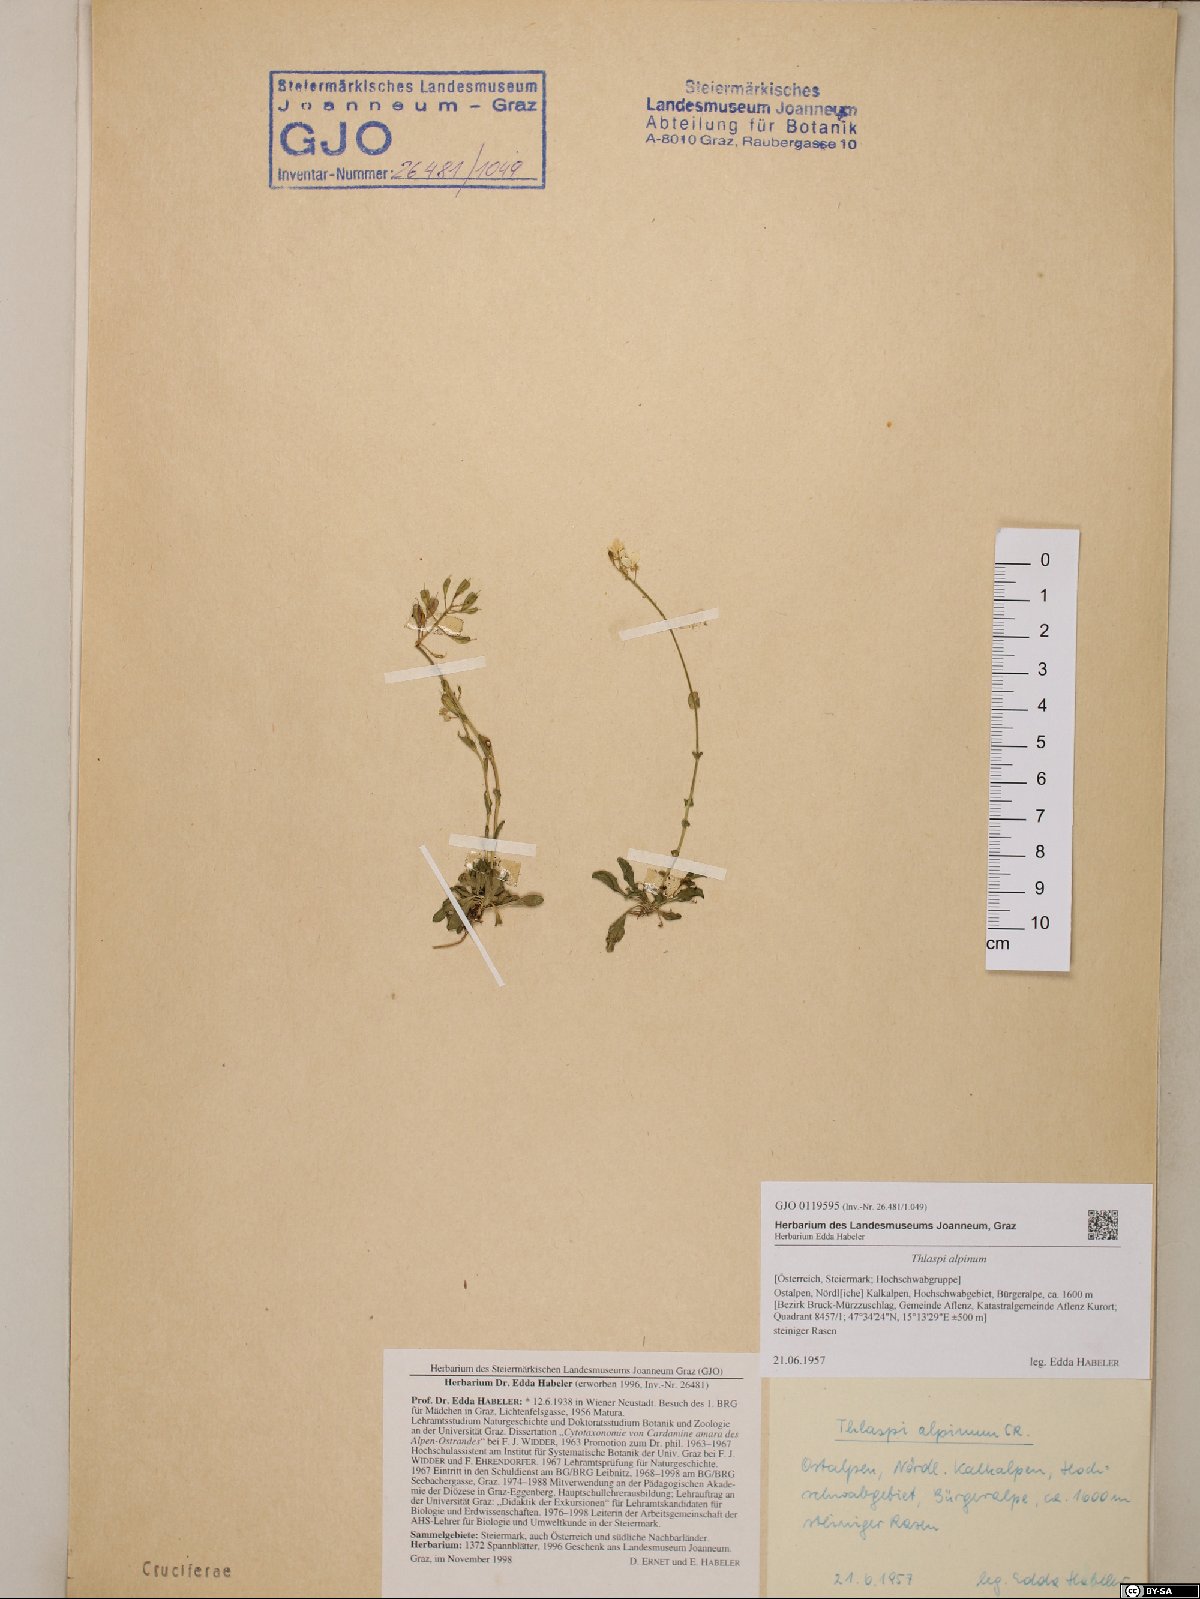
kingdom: Plantae
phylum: Tracheophyta
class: Magnoliopsida
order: Brassicales
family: Brassicaceae
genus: Noccaea
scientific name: Noccaea alpestris
